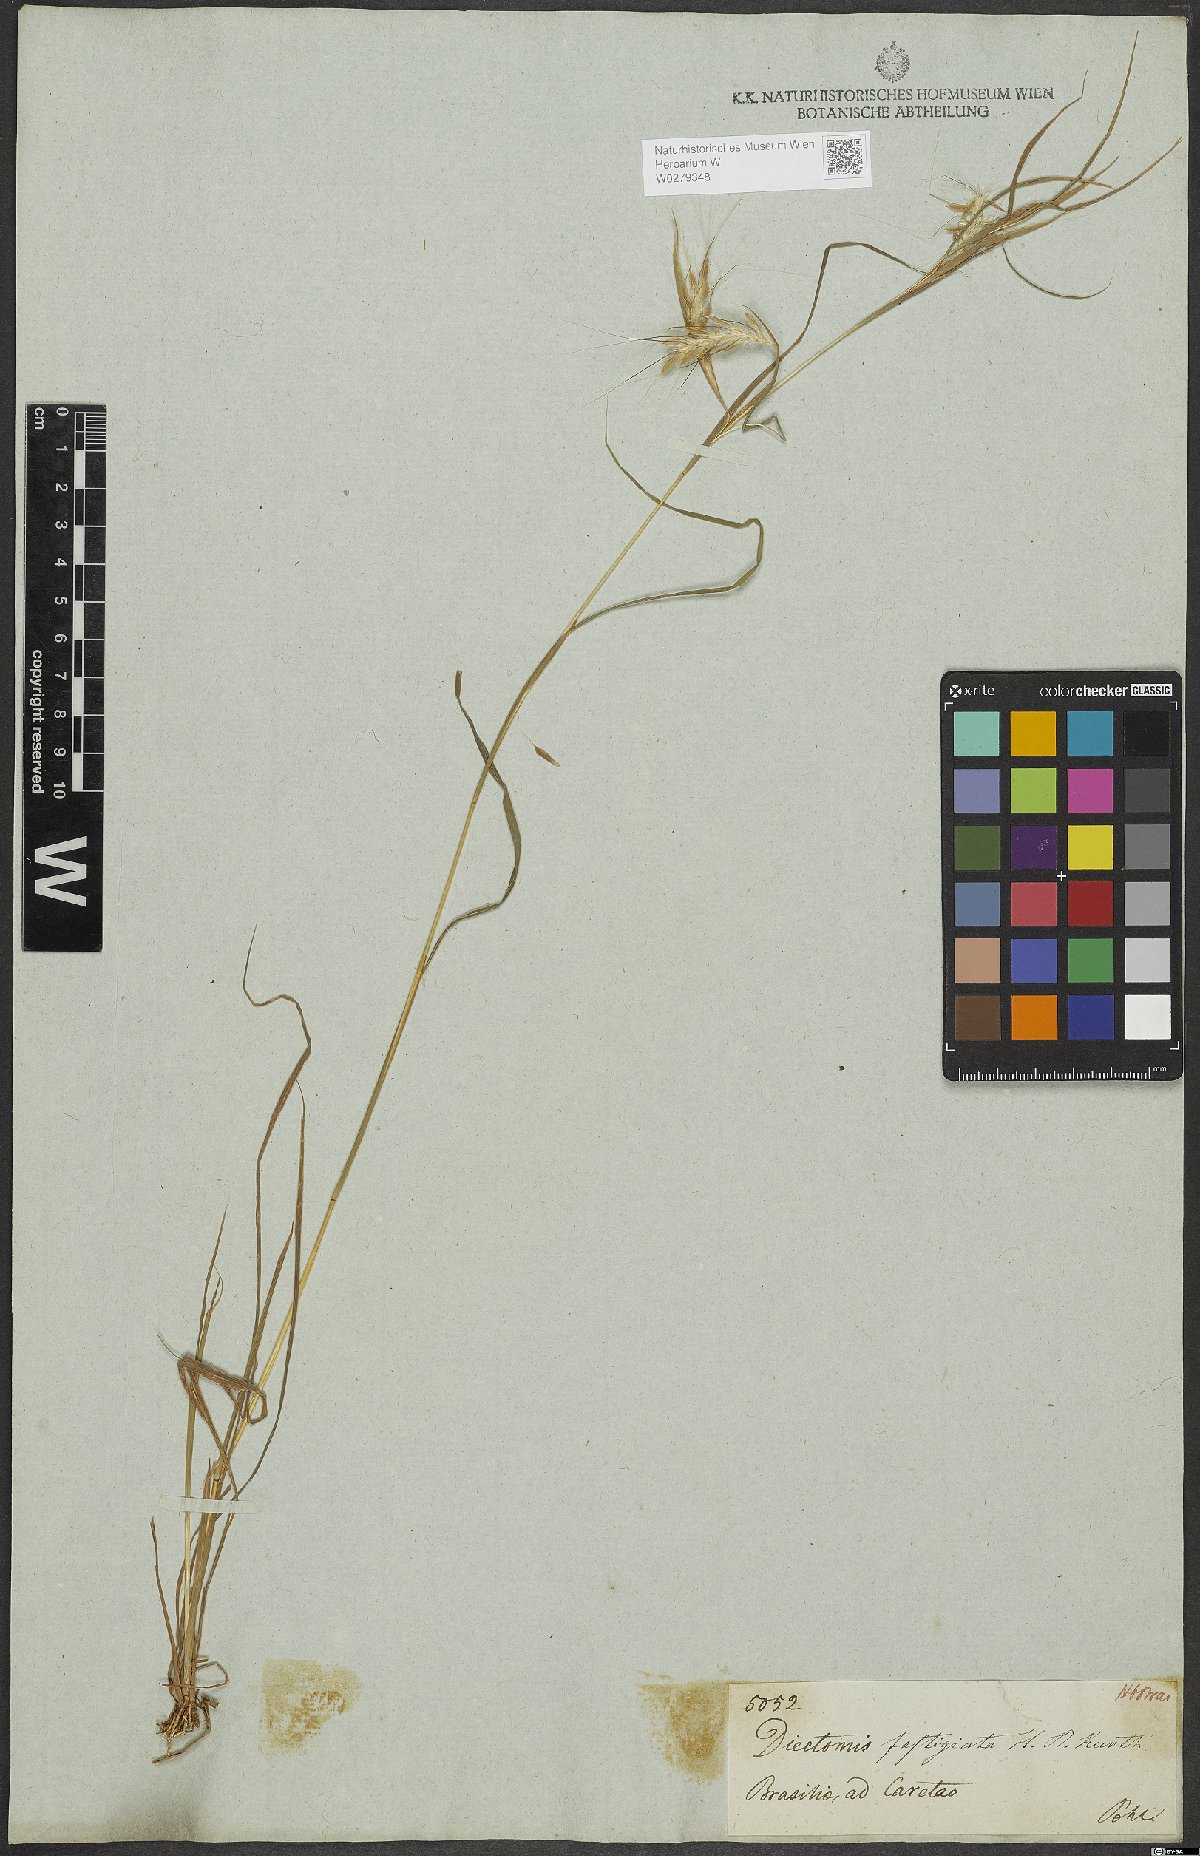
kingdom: Plantae
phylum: Tracheophyta
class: Liliopsida
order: Poales
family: Poaceae
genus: Diectomis
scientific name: Diectomis fastigiata
